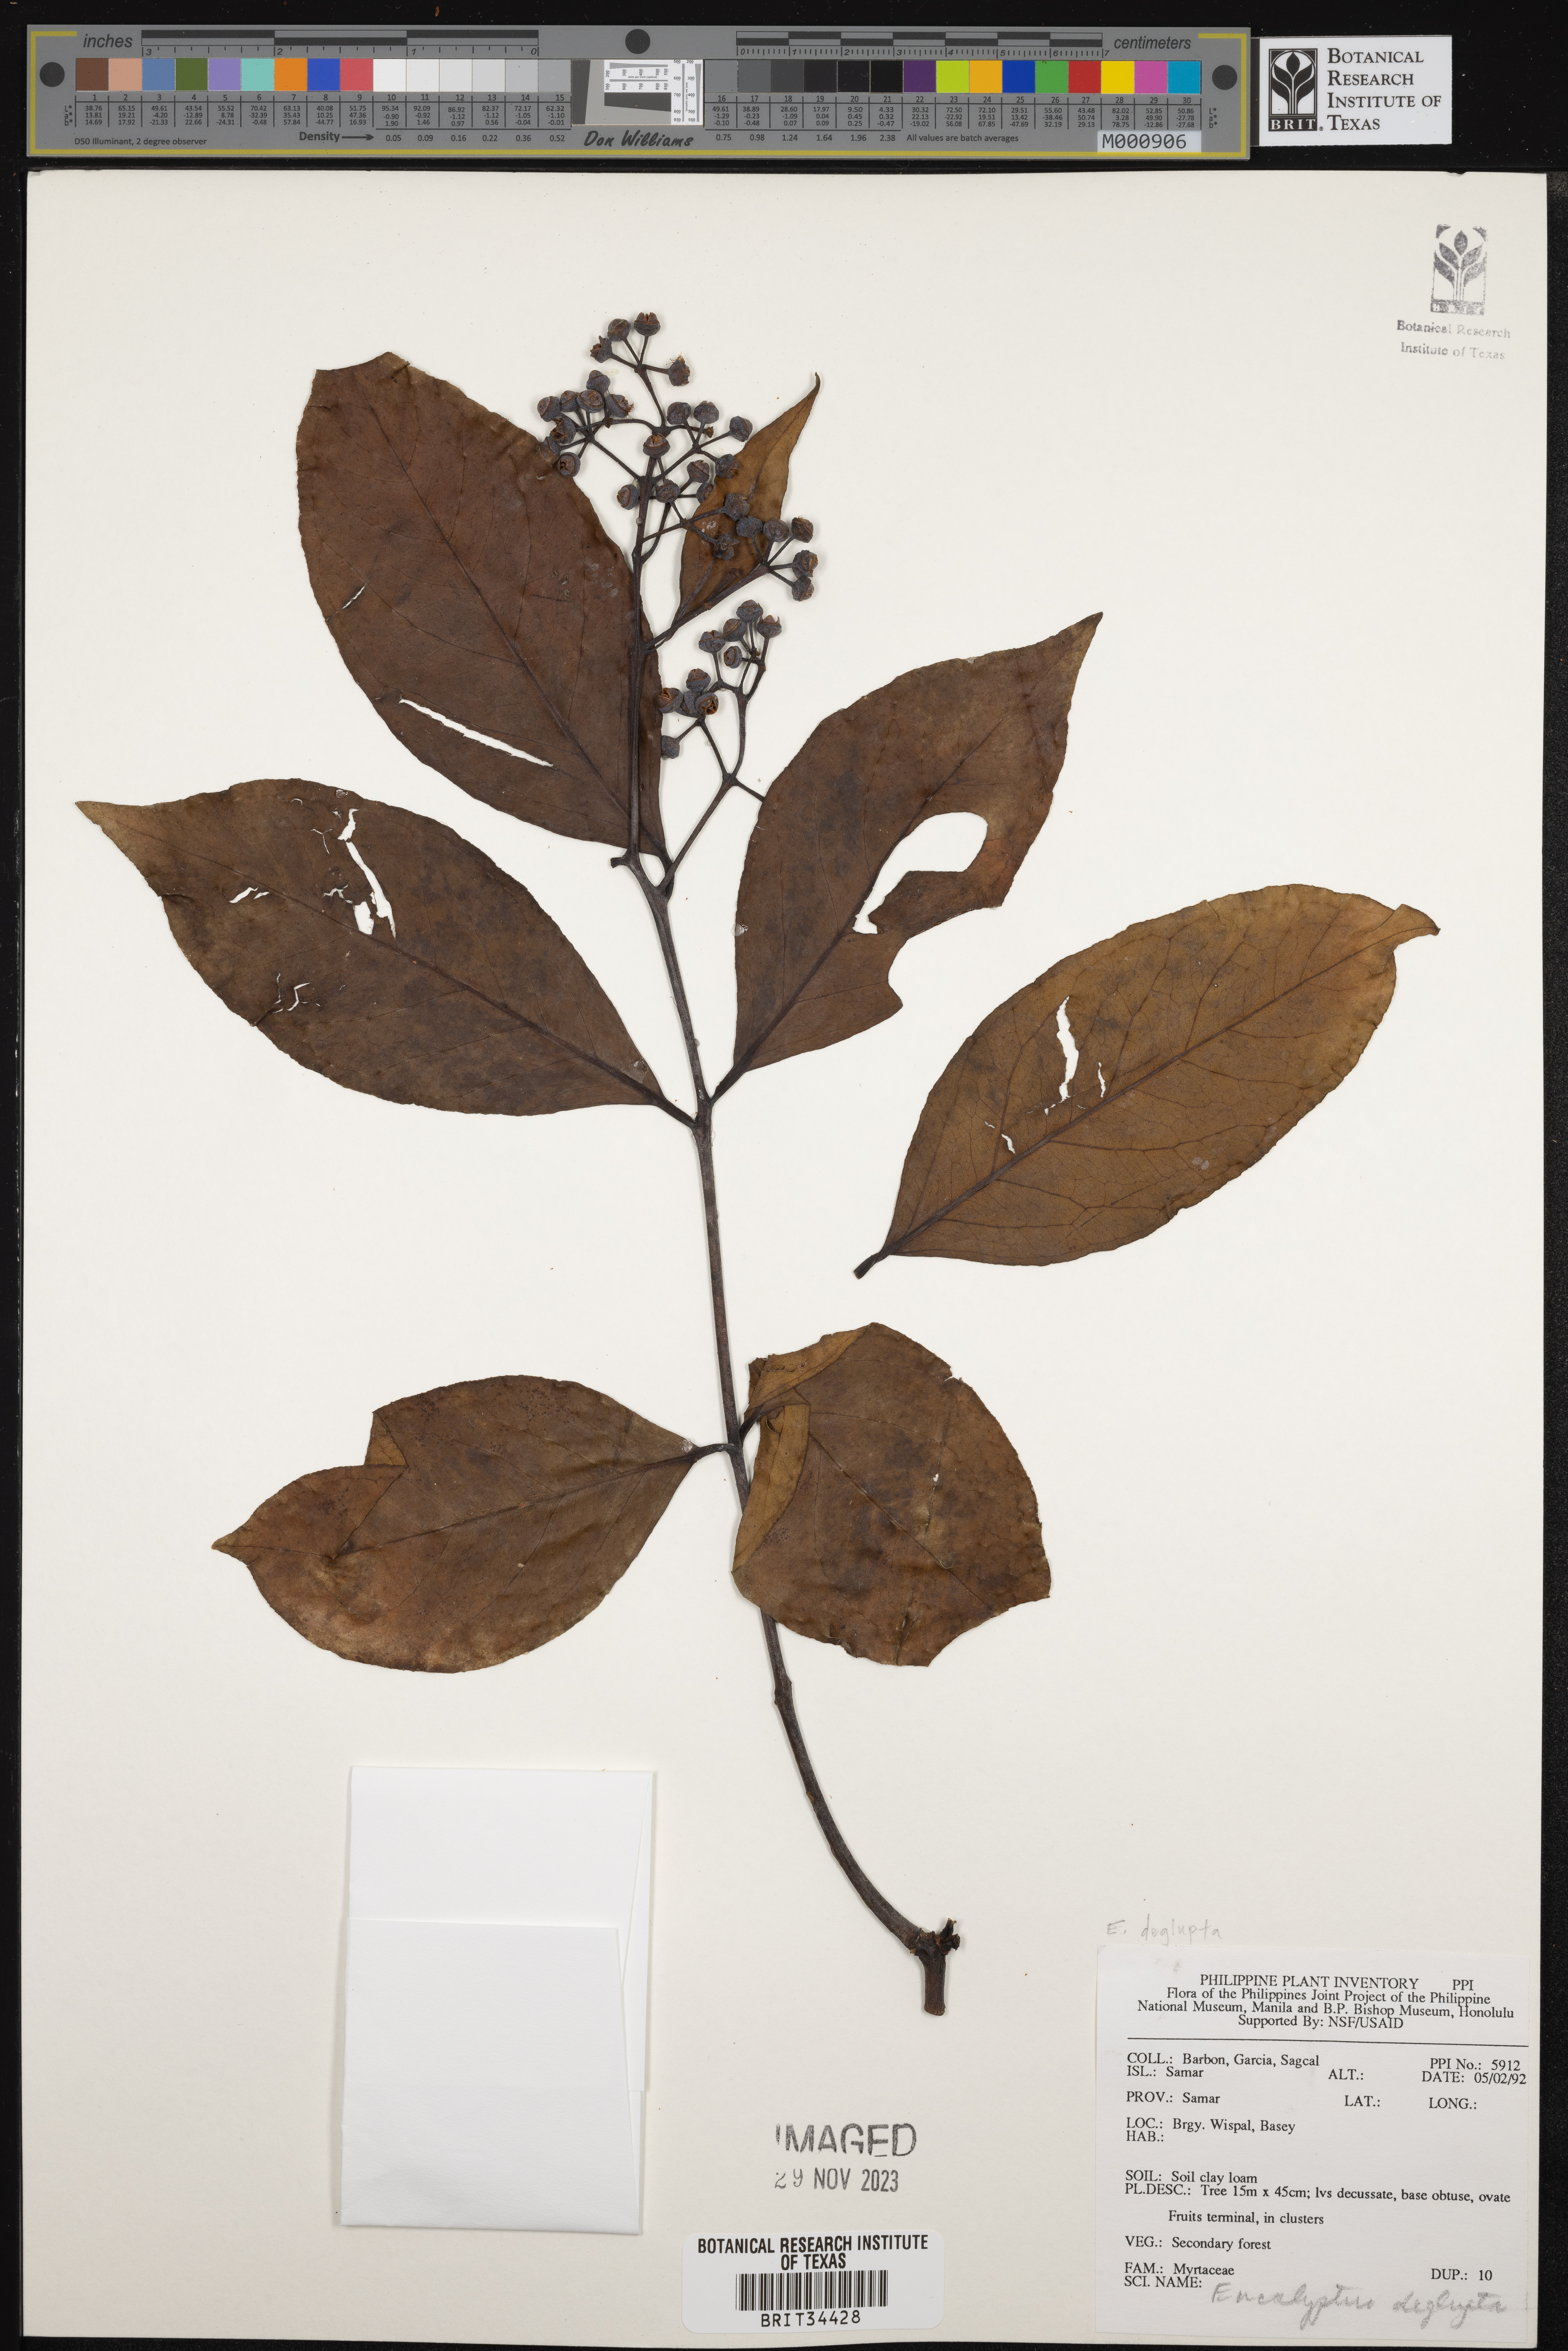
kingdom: Plantae
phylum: Tracheophyta
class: Magnoliopsida
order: Myrtales
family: Myrtaceae
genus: Eucalyptus
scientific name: Eucalyptus deglupta
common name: Mindanao gum
